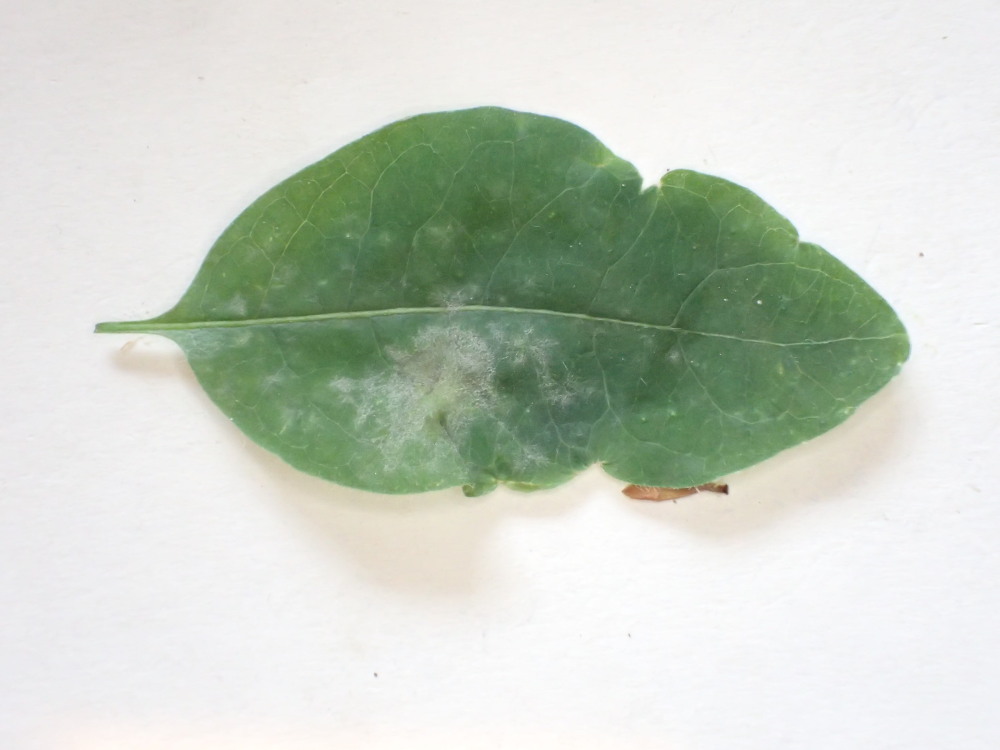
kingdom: Fungi
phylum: Ascomycota
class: Leotiomycetes
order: Helotiales
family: Erysiphaceae
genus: Erysiphe
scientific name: Erysiphe lonicerae
